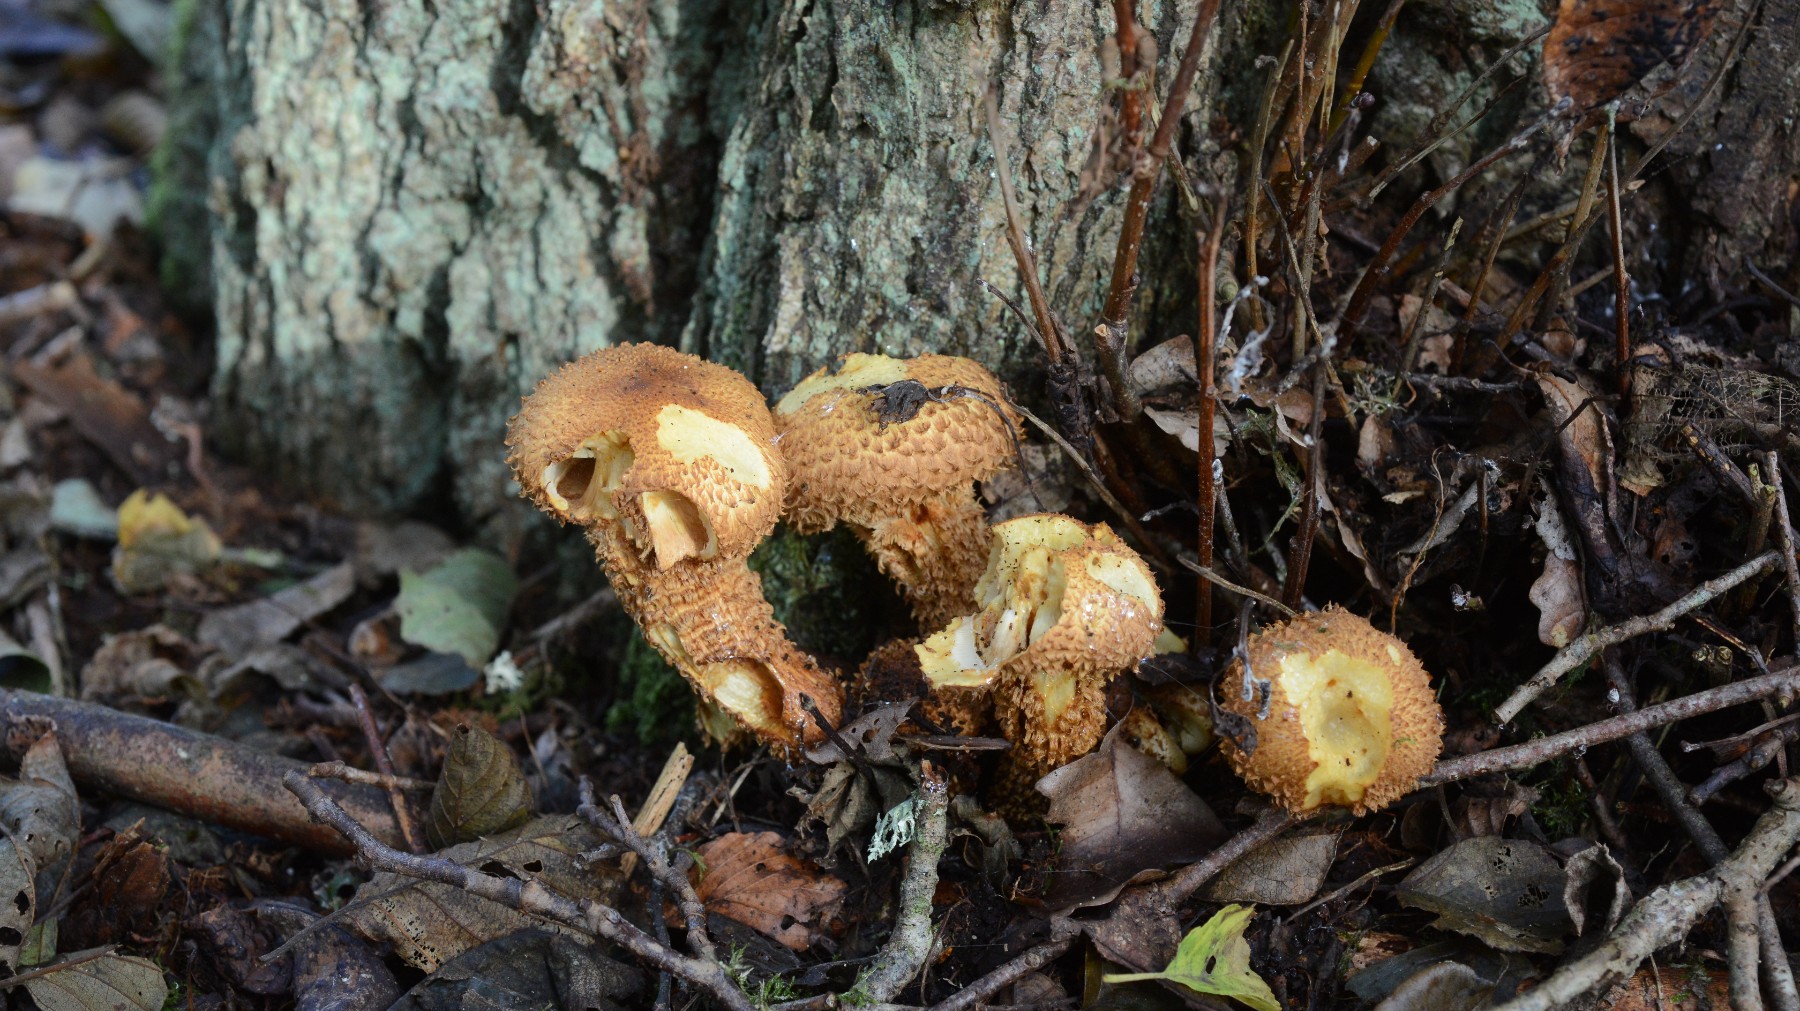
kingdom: Fungi
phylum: Basidiomycota
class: Agaricomycetes
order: Agaricales
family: Strophariaceae
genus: Pholiota
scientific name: Pholiota squarrosa
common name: krumskællet skælhat
